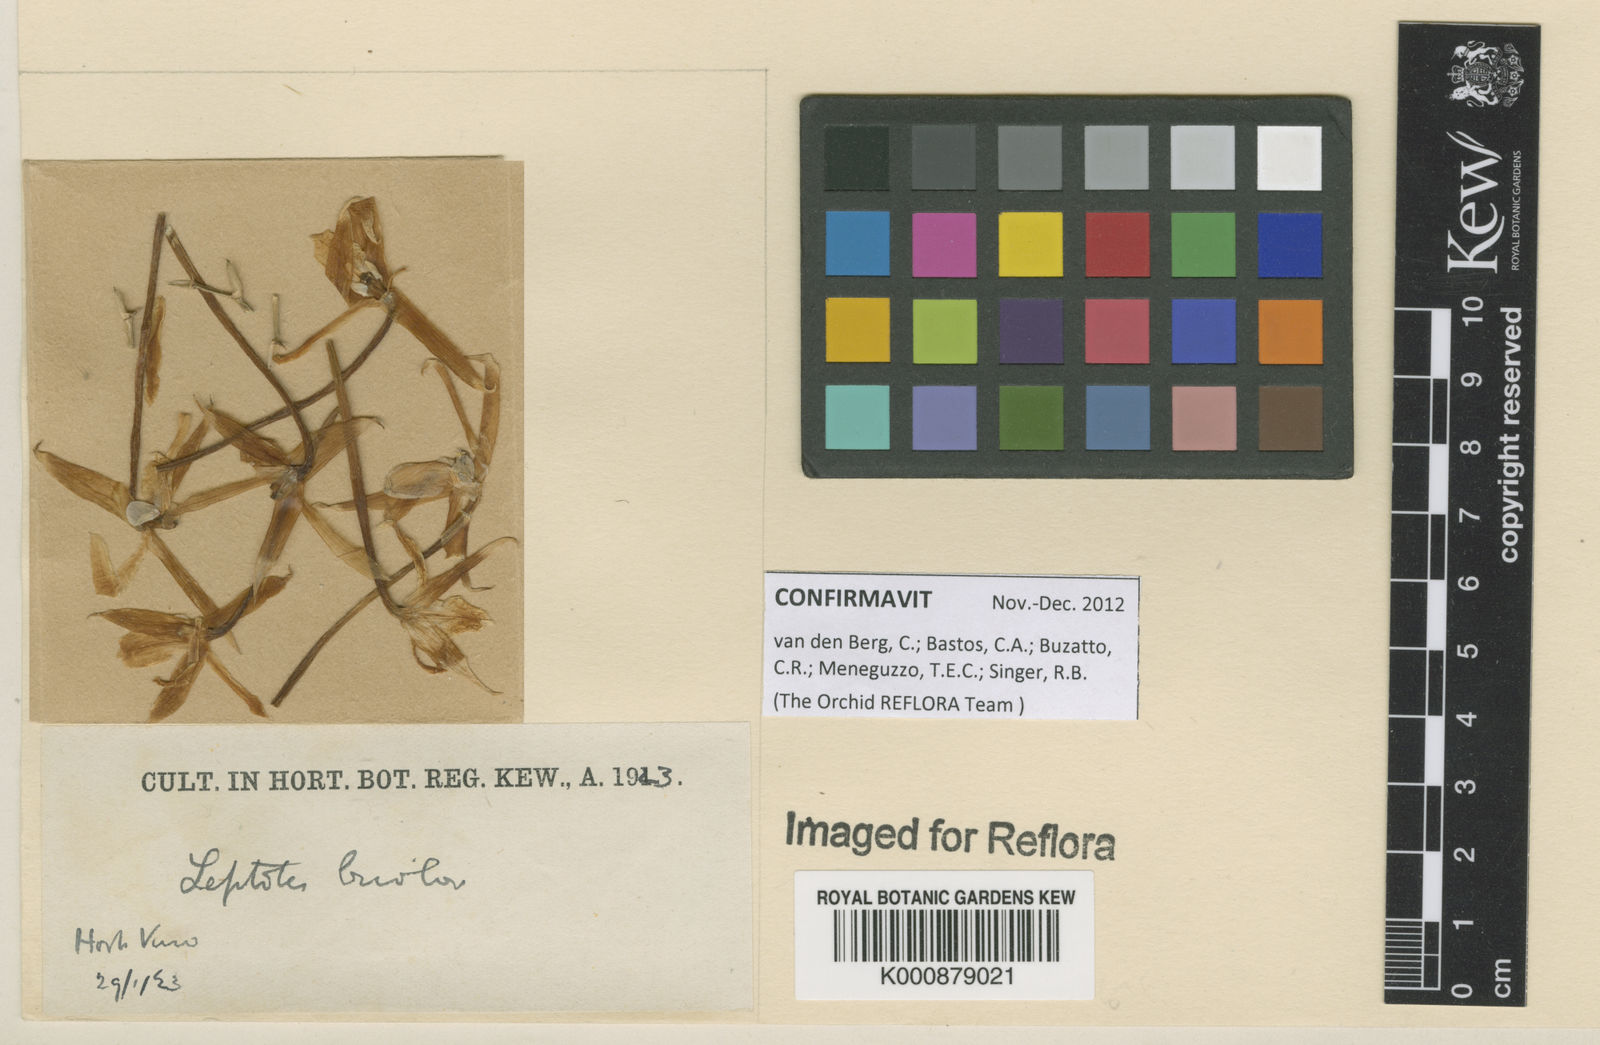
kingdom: Plantae
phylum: Tracheophyta
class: Liliopsida
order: Asparagales
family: Orchidaceae
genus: Leptotes
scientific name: Leptotes bicolor
